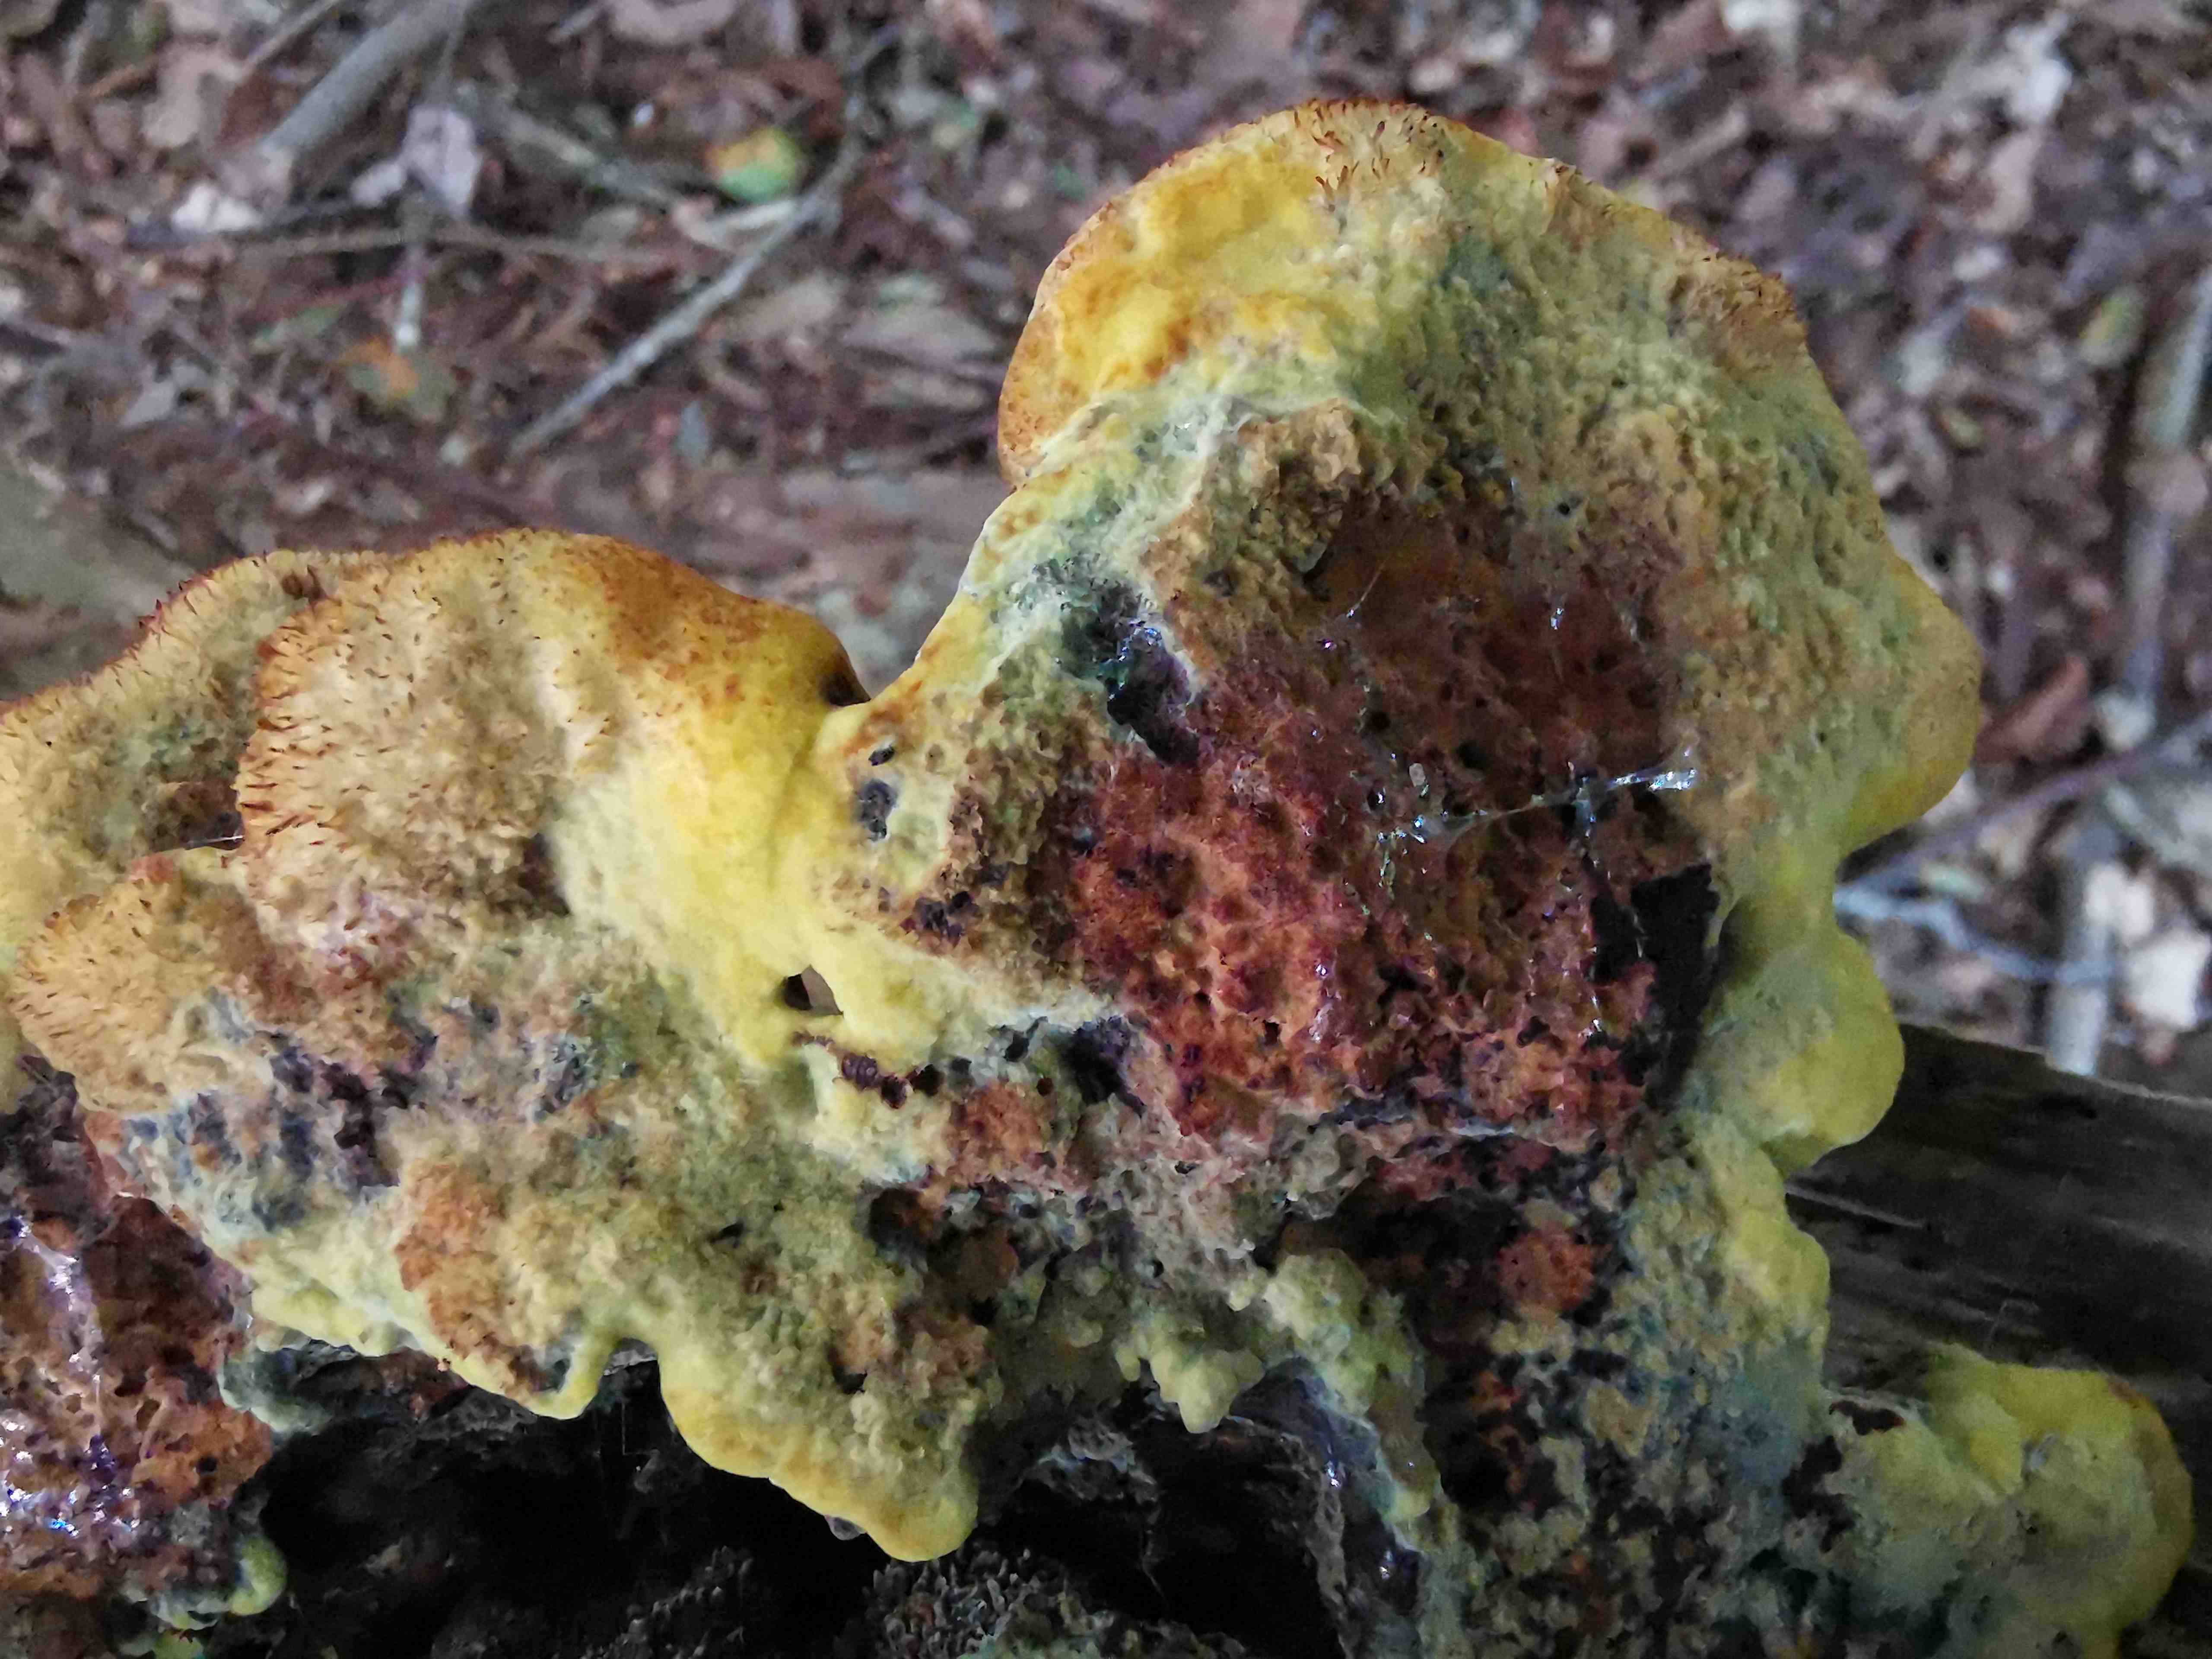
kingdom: Fungi
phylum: Basidiomycota
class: Agaricomycetes
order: Polyporales
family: Laetiporaceae
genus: Phaeolus
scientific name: Phaeolus schweinitzii
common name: brunporesvamp
